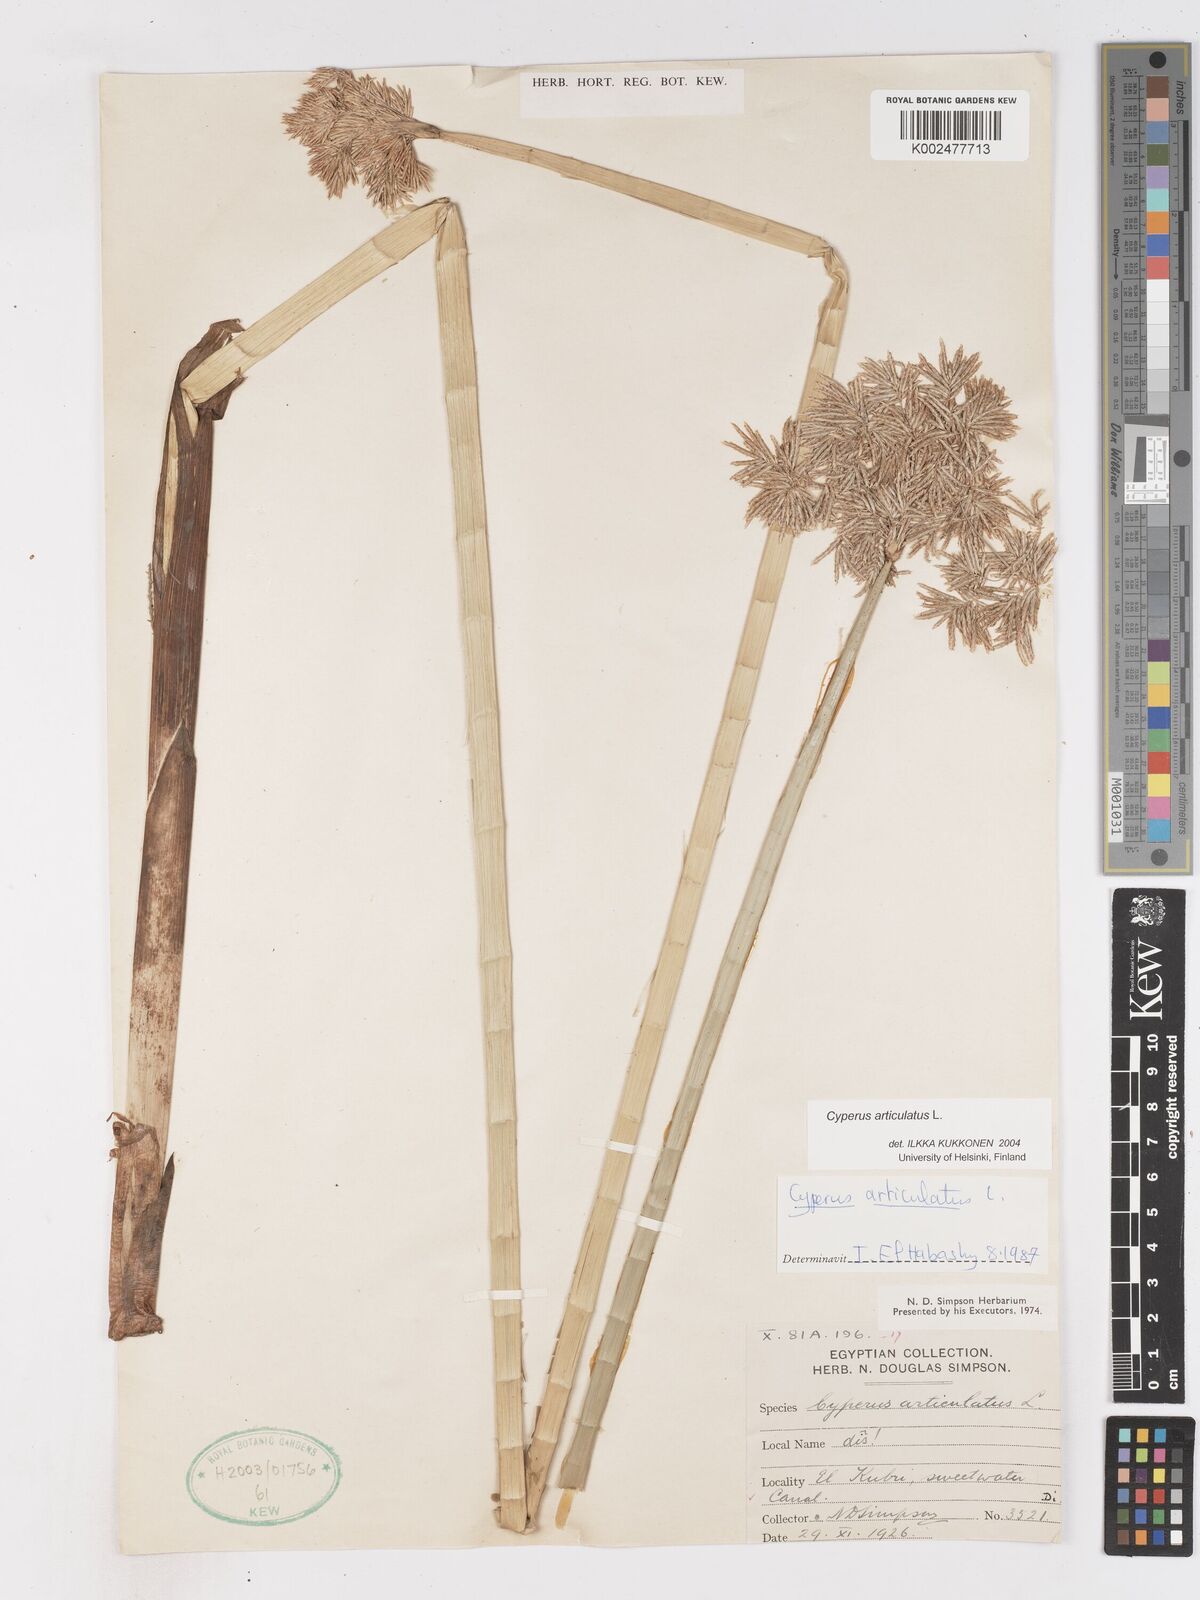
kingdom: Plantae
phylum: Tracheophyta
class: Liliopsida
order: Poales
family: Cyperaceae
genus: Cyperus
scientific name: Cyperus articulatus
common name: Jointed flatsedge
